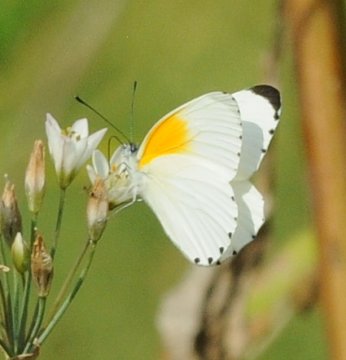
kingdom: Animalia
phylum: Arthropoda
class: Insecta
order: Lepidoptera
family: Pieridae
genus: Mylothris
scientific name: Mylothris rueppellii
